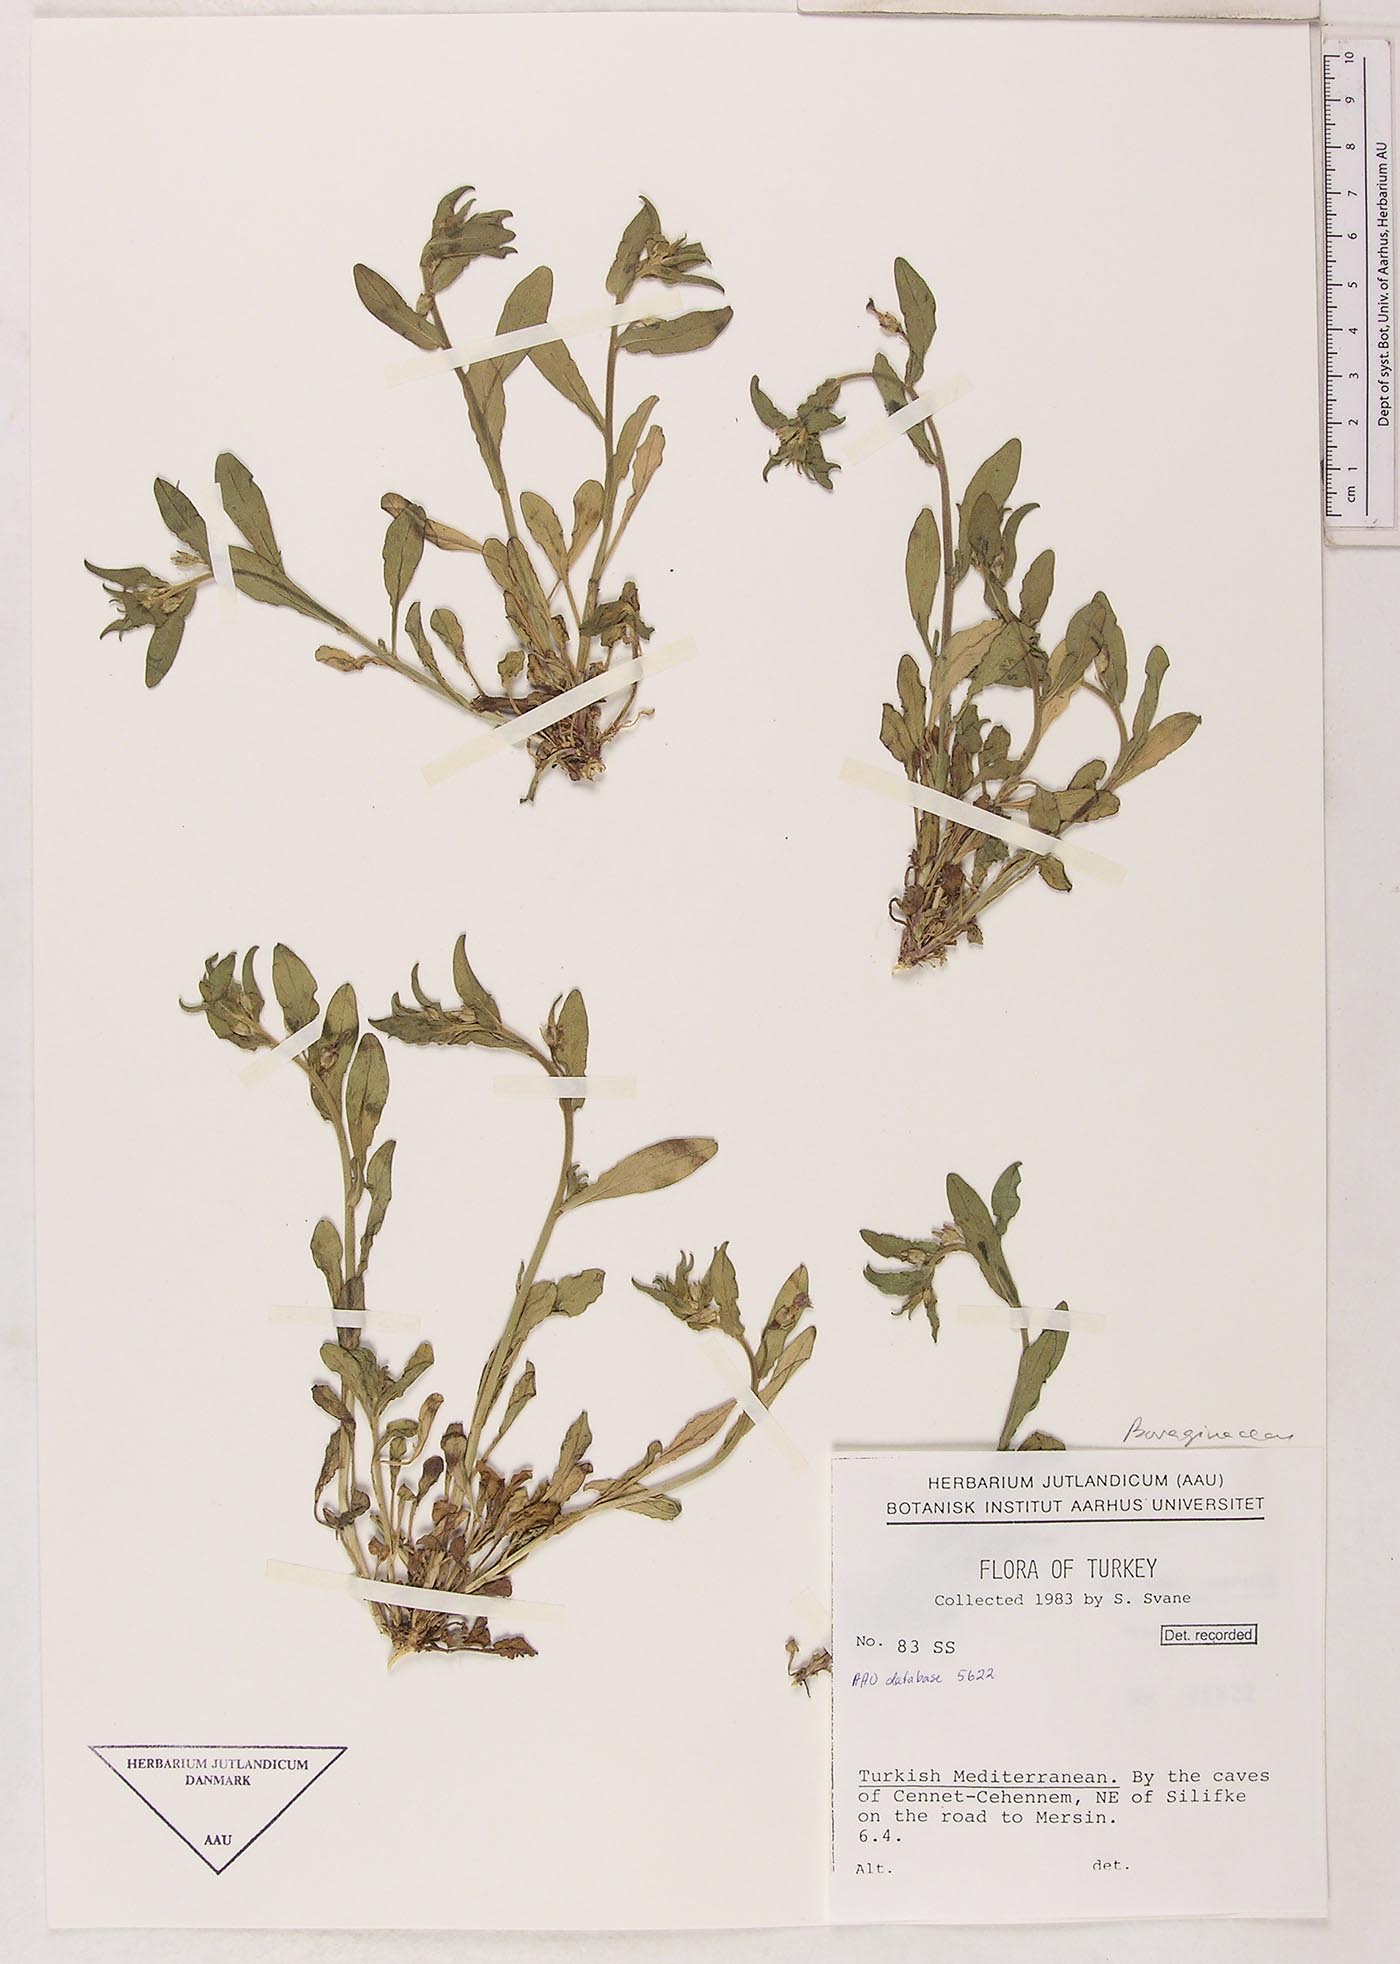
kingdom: Plantae
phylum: Tracheophyta
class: Magnoliopsida
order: Caryophyllales
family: Plumbaginaceae
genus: Limoniastrum
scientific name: Limoniastrum
